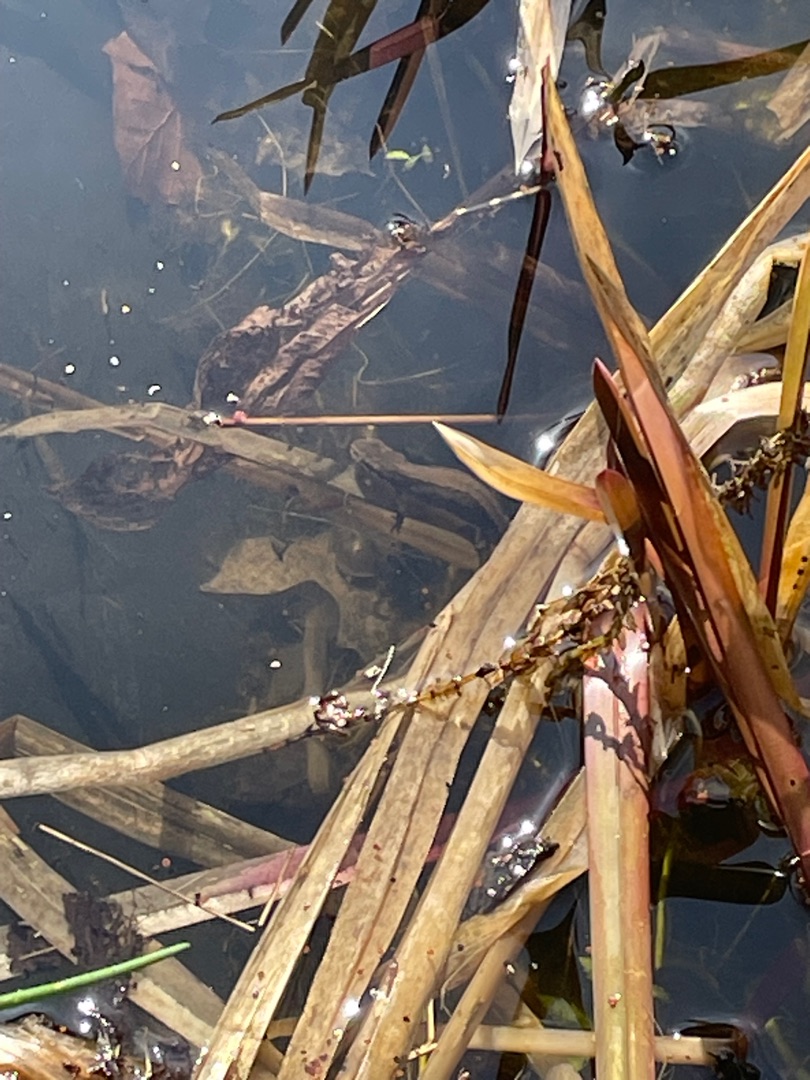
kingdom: Animalia
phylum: Chordata
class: Amphibia
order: Caudata
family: Salamandridae
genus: Lissotriton
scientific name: Lissotriton vulgaris
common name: Lille vandsalamander
